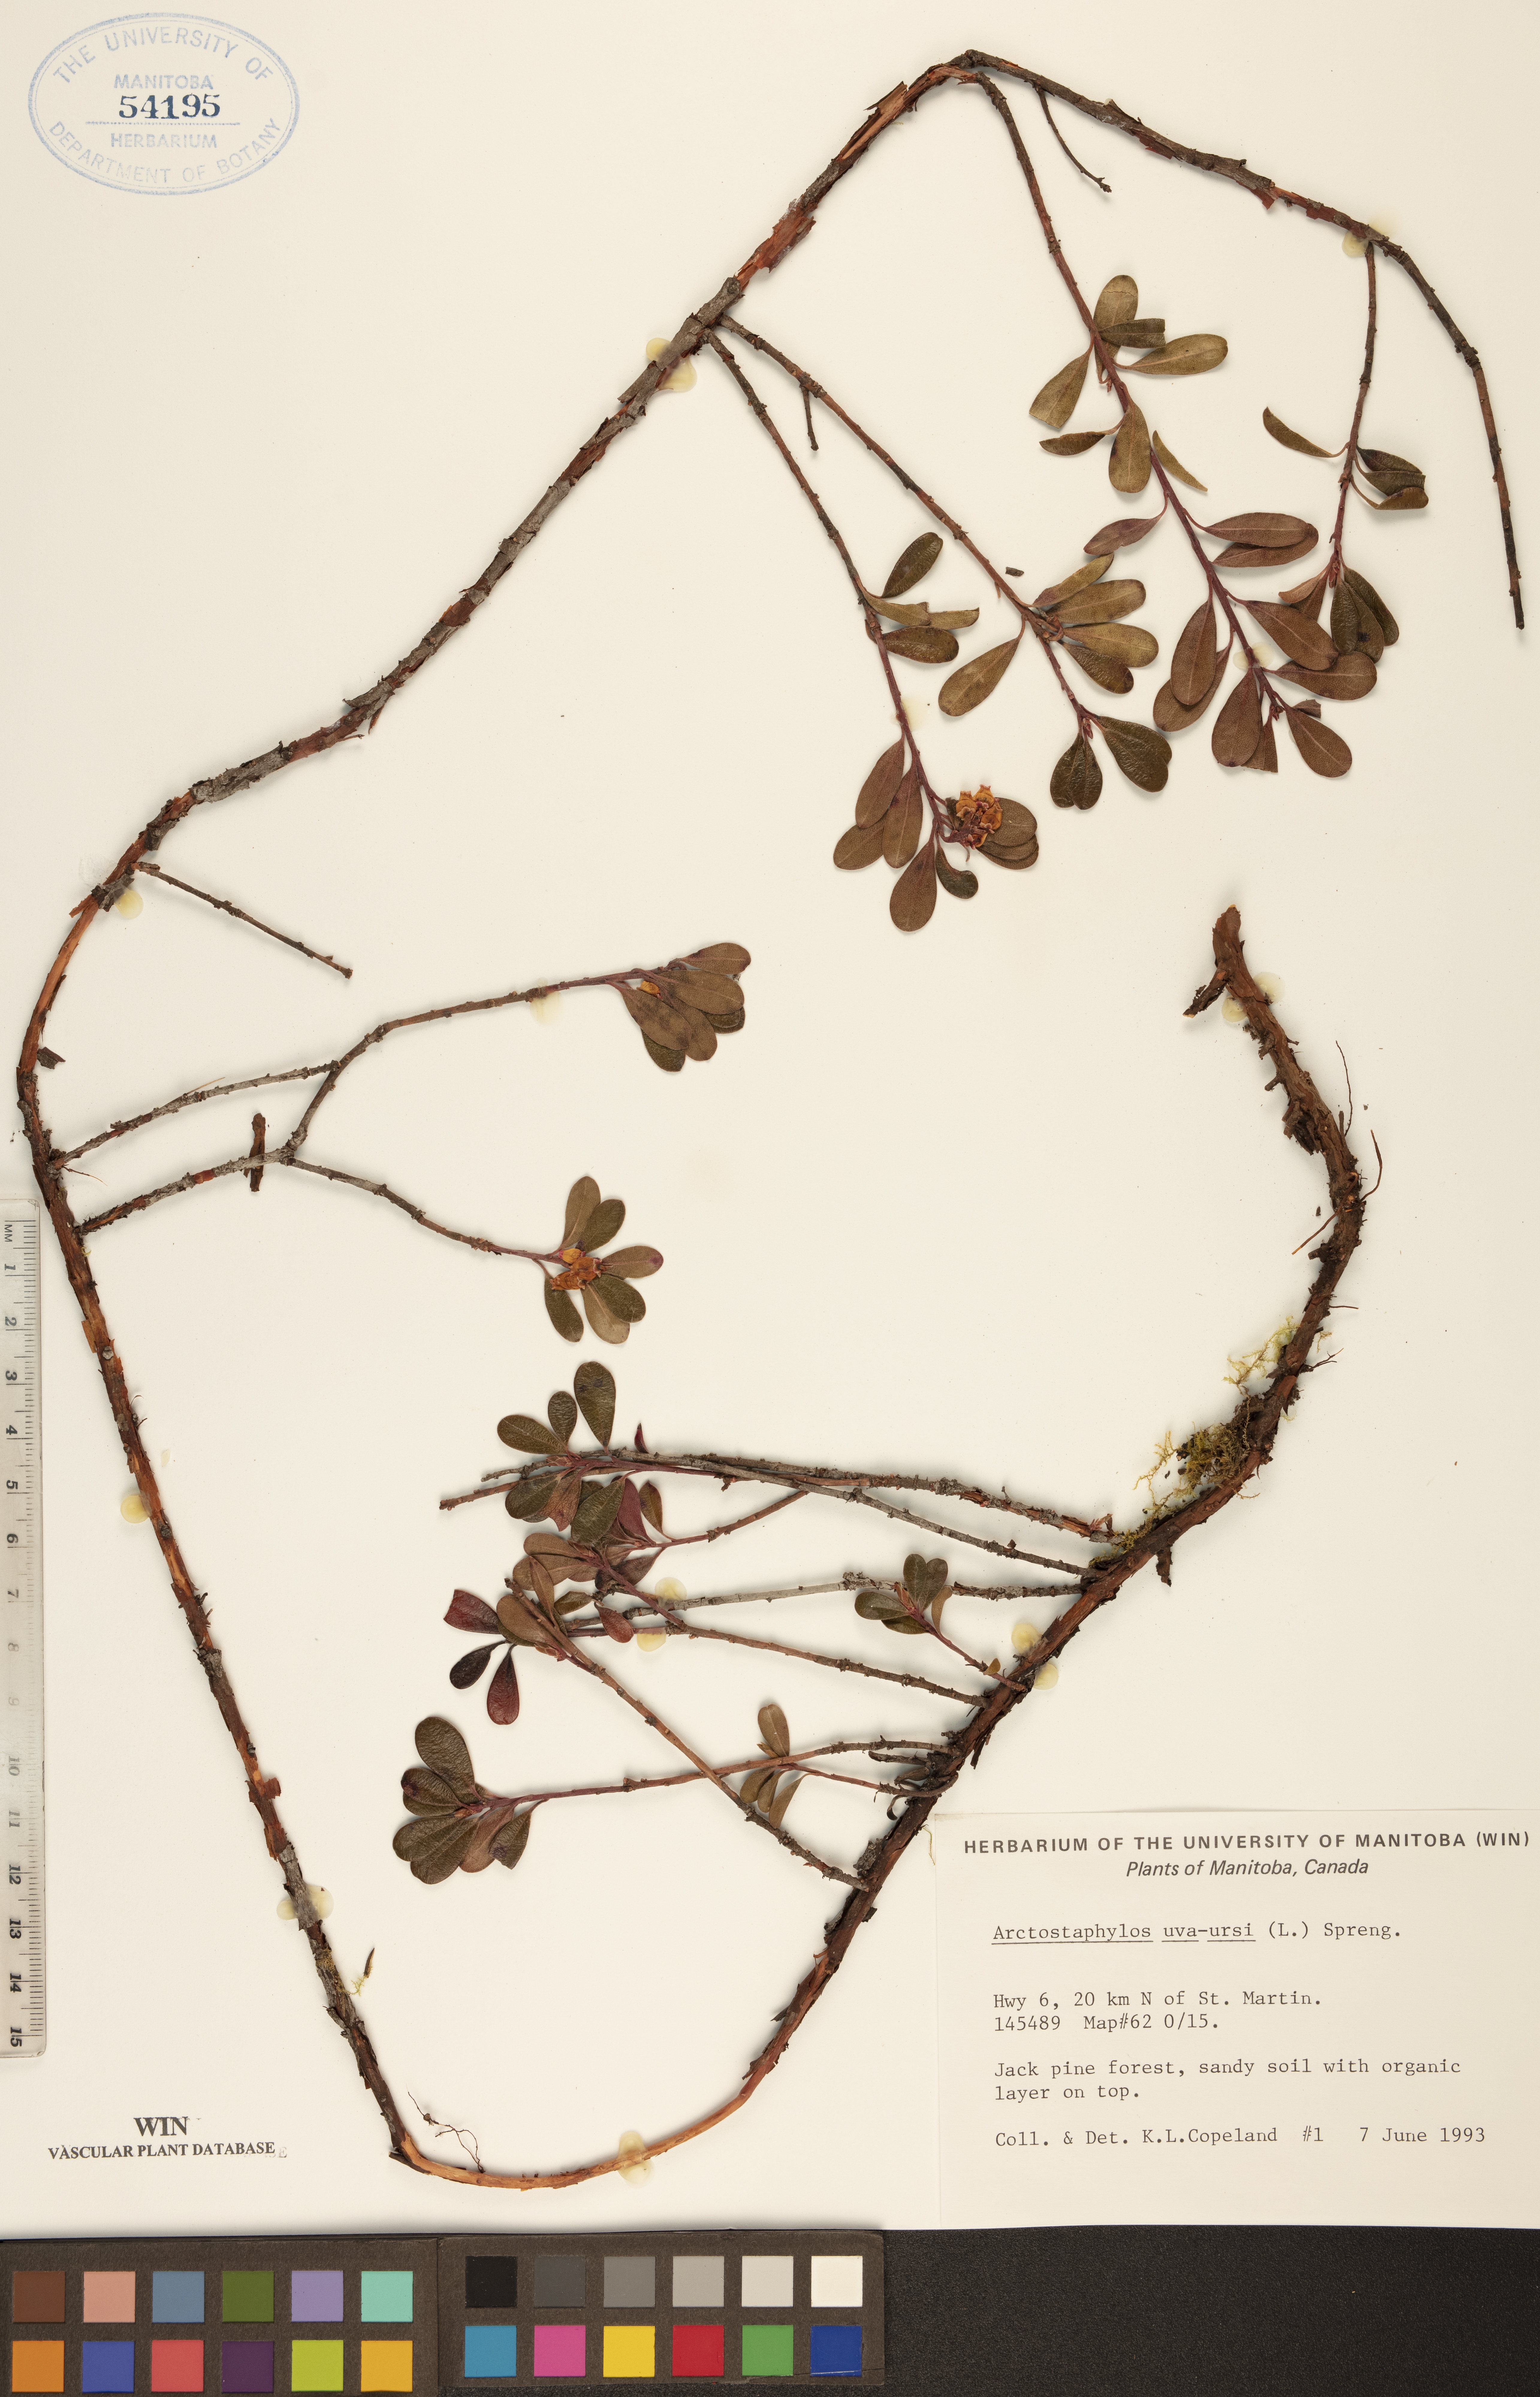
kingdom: Plantae
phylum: Tracheophyta
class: Magnoliopsida
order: Ericales
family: Ericaceae
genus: Arctostaphylos
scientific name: Arctostaphylos uva-ursi
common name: Bearberry
